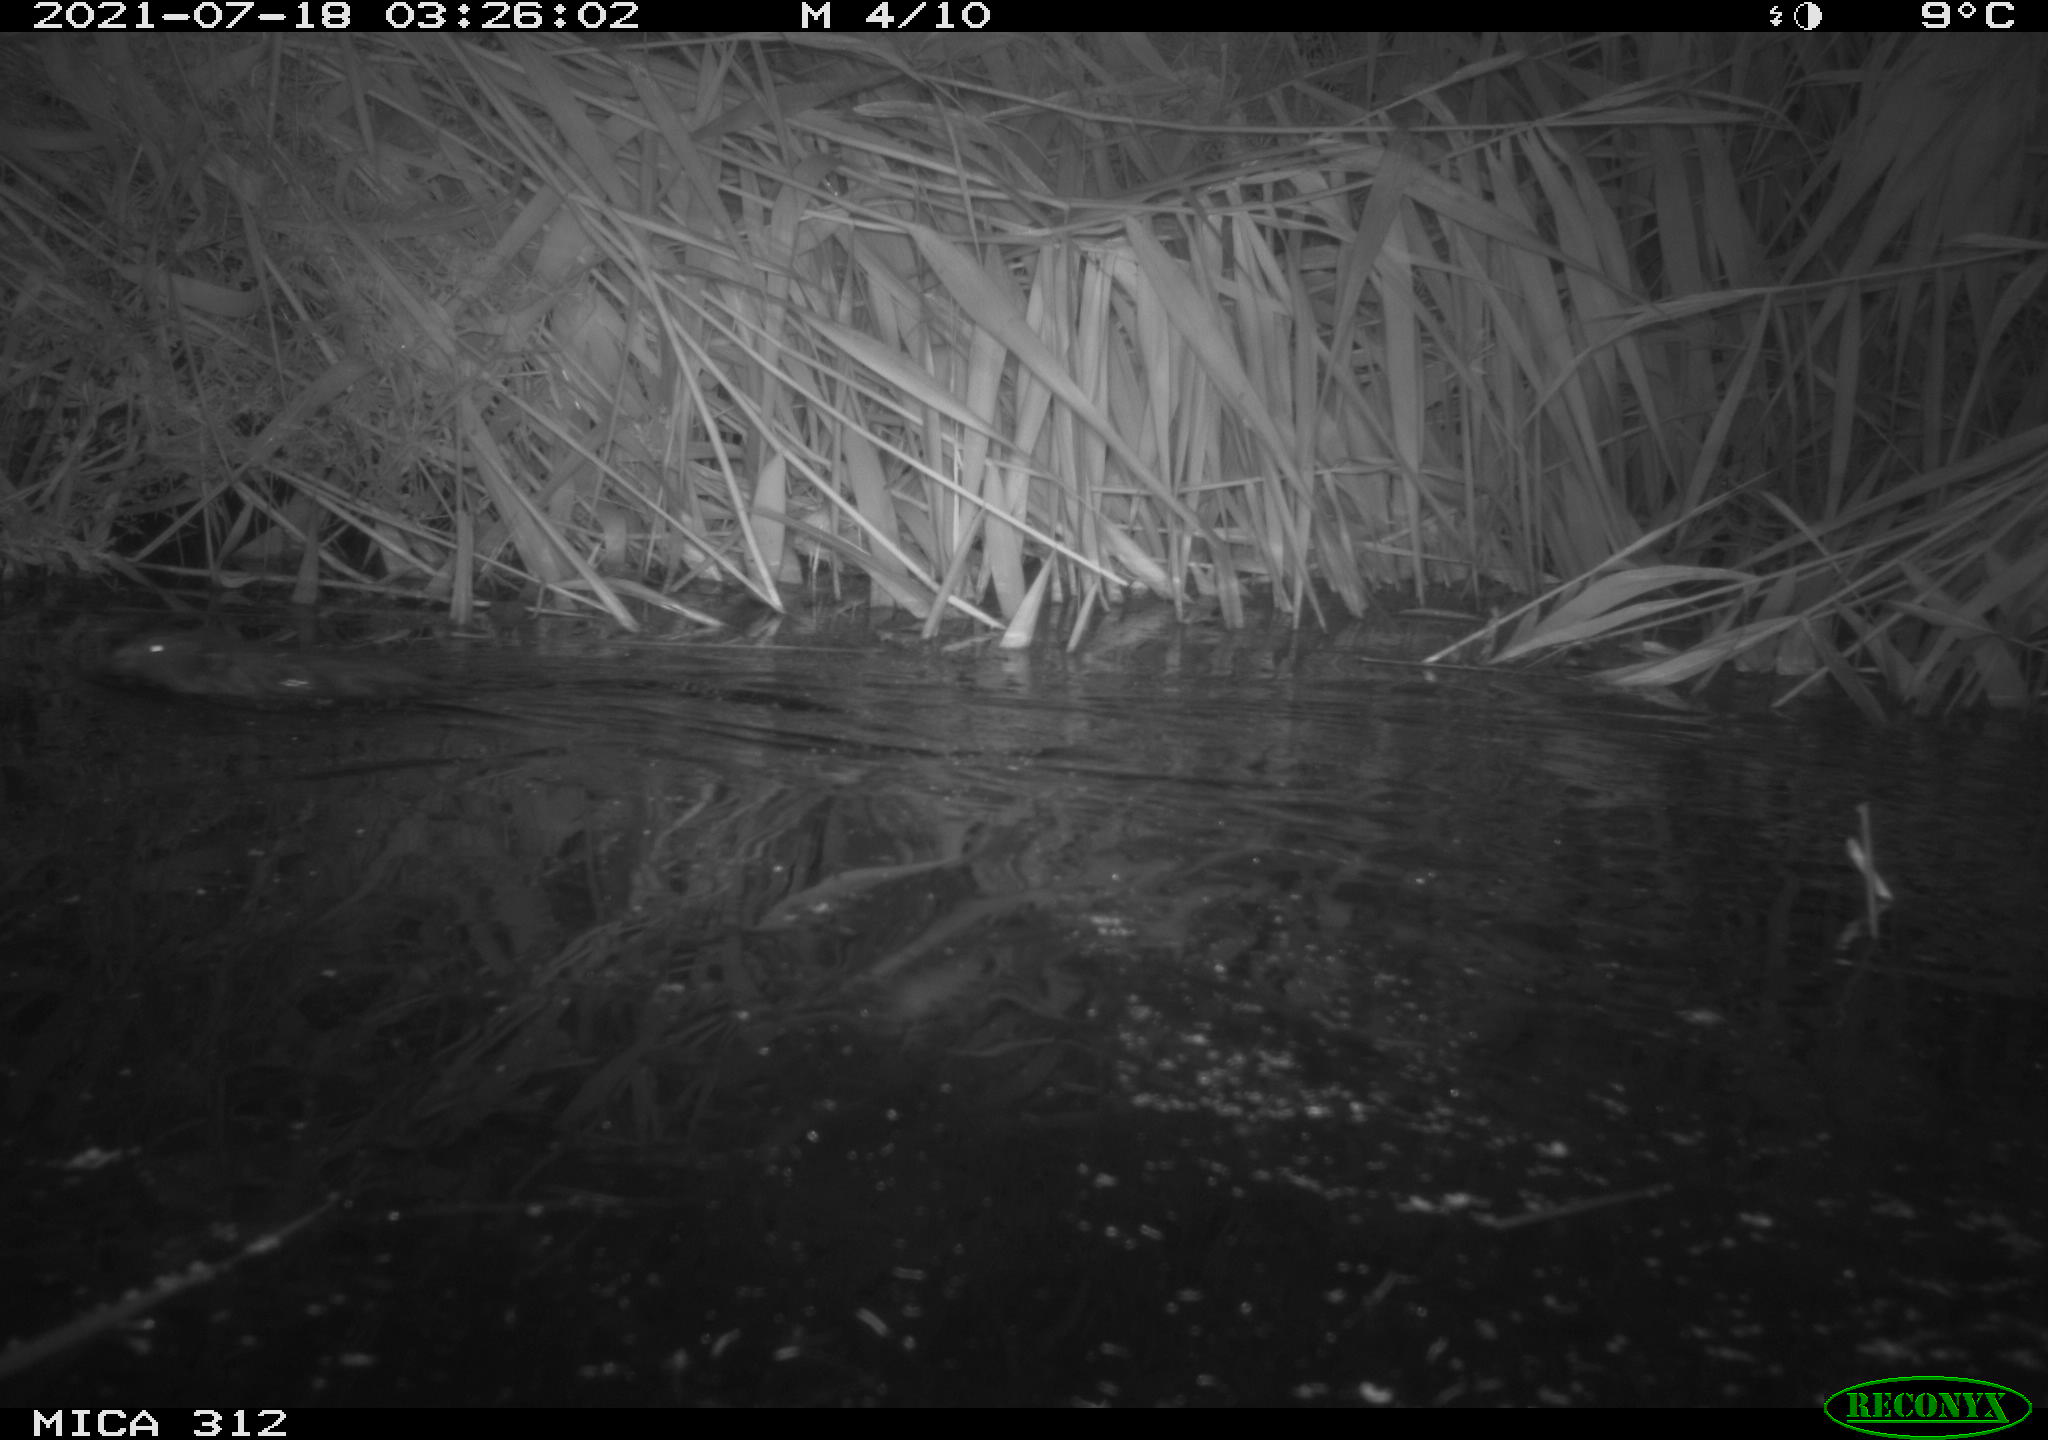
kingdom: Animalia
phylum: Chordata
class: Mammalia
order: Rodentia
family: Cricetidae
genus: Ondatra
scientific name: Ondatra zibethicus
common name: Muskrat
